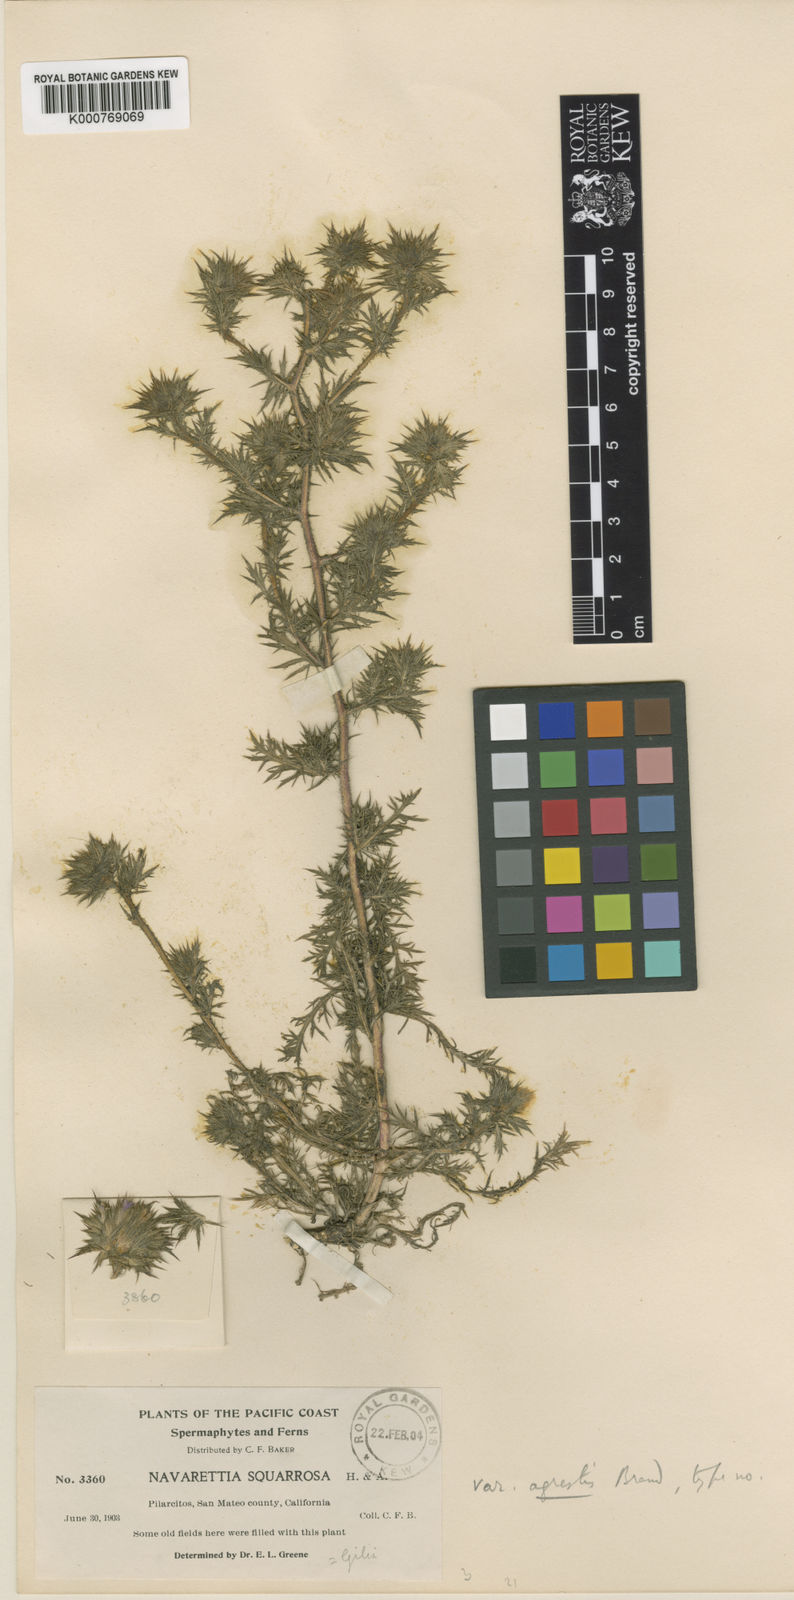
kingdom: Plantae
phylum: Tracheophyta
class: Magnoliopsida
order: Ericales
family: Polemoniaceae
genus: Navarretia
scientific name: Navarretia mellita
